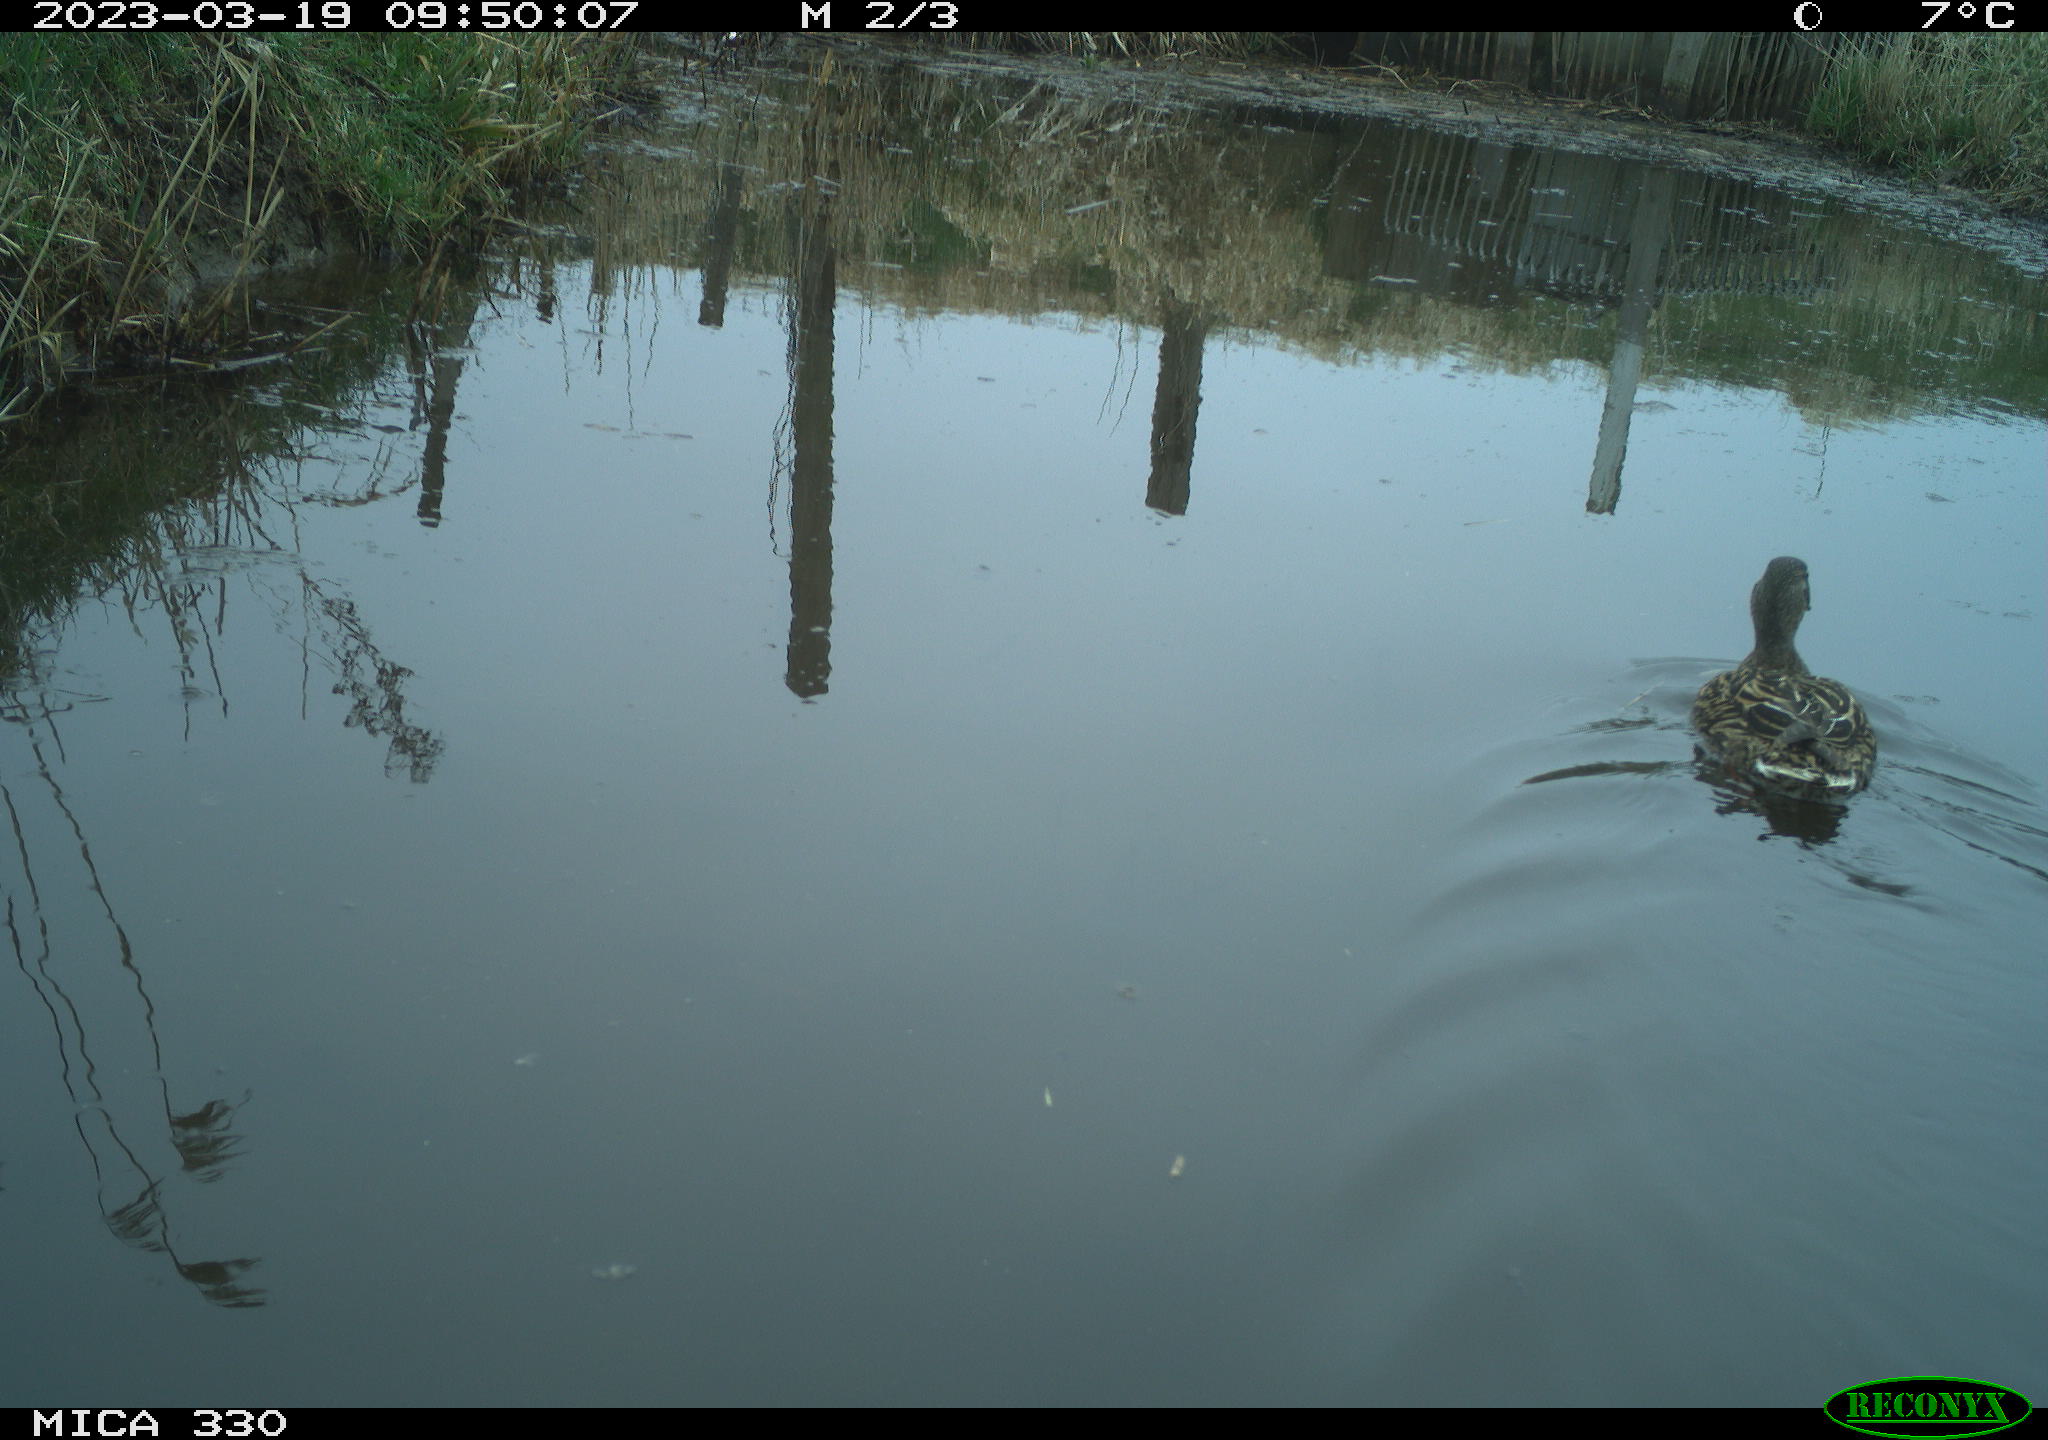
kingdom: Animalia
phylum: Chordata
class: Aves
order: Anseriformes
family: Anatidae
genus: Anas
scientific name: Anas
